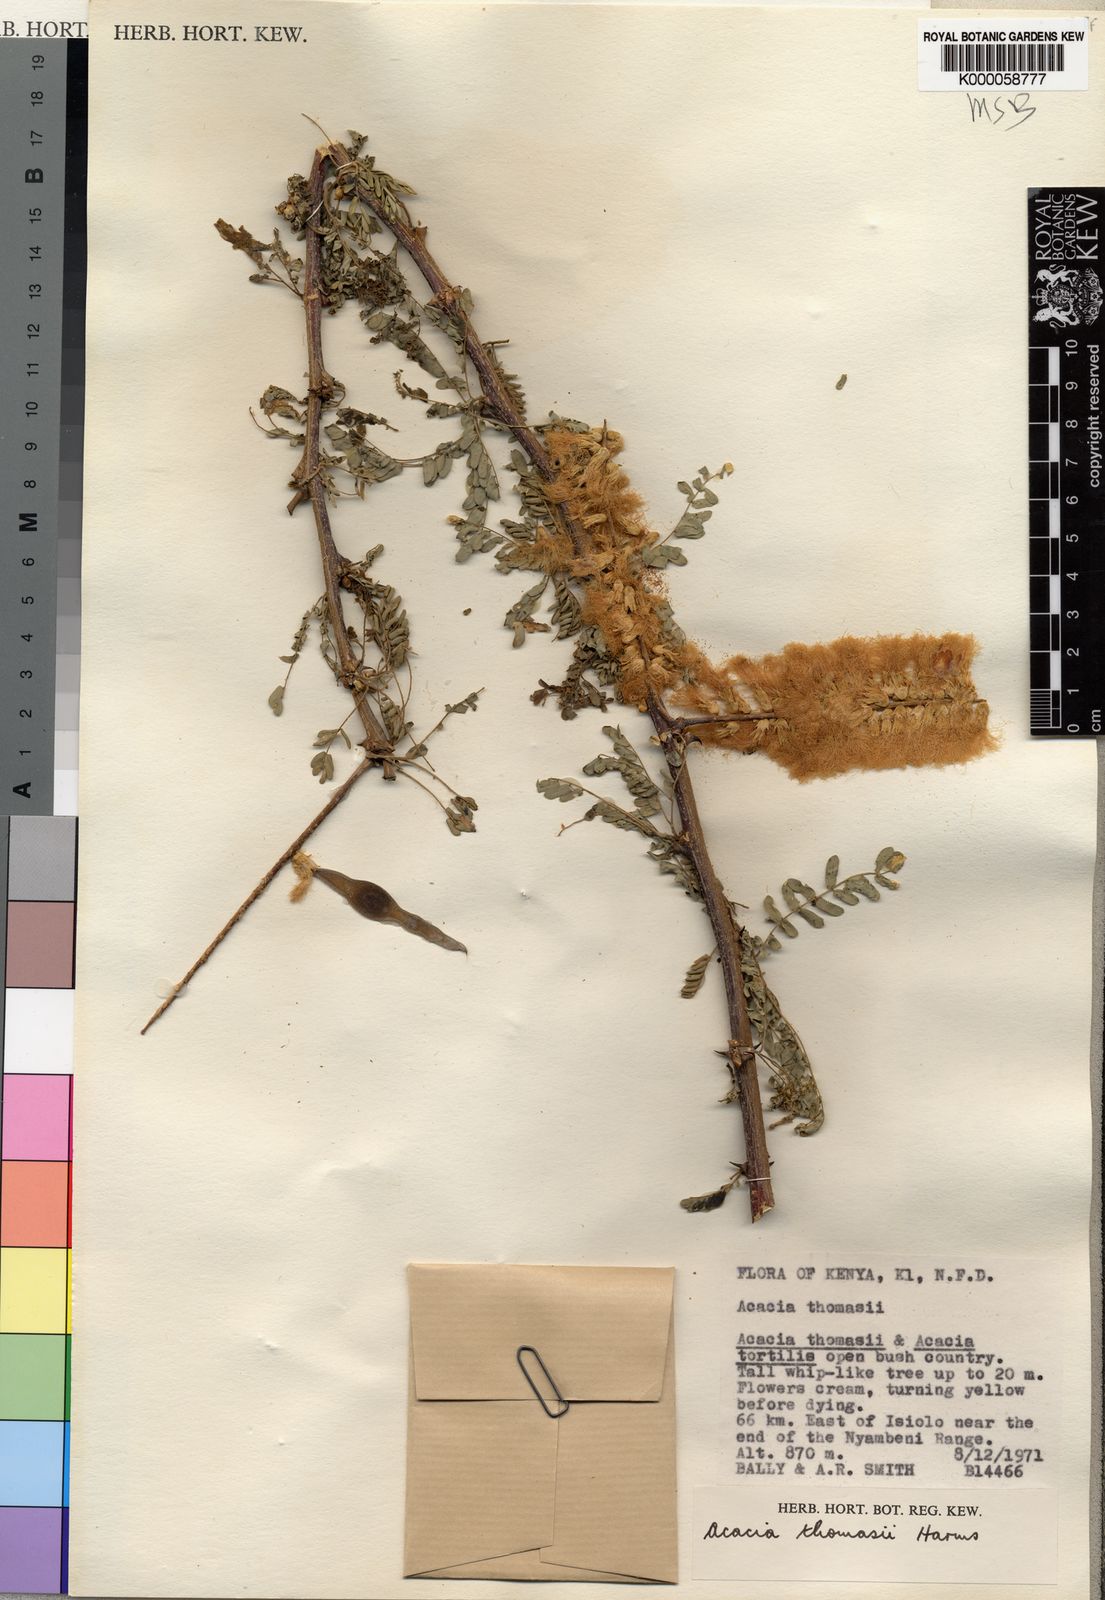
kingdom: Plantae
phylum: Tracheophyta
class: Magnoliopsida
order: Fabales
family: Fabaceae
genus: Senegalia
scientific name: Senegalia thomasii
